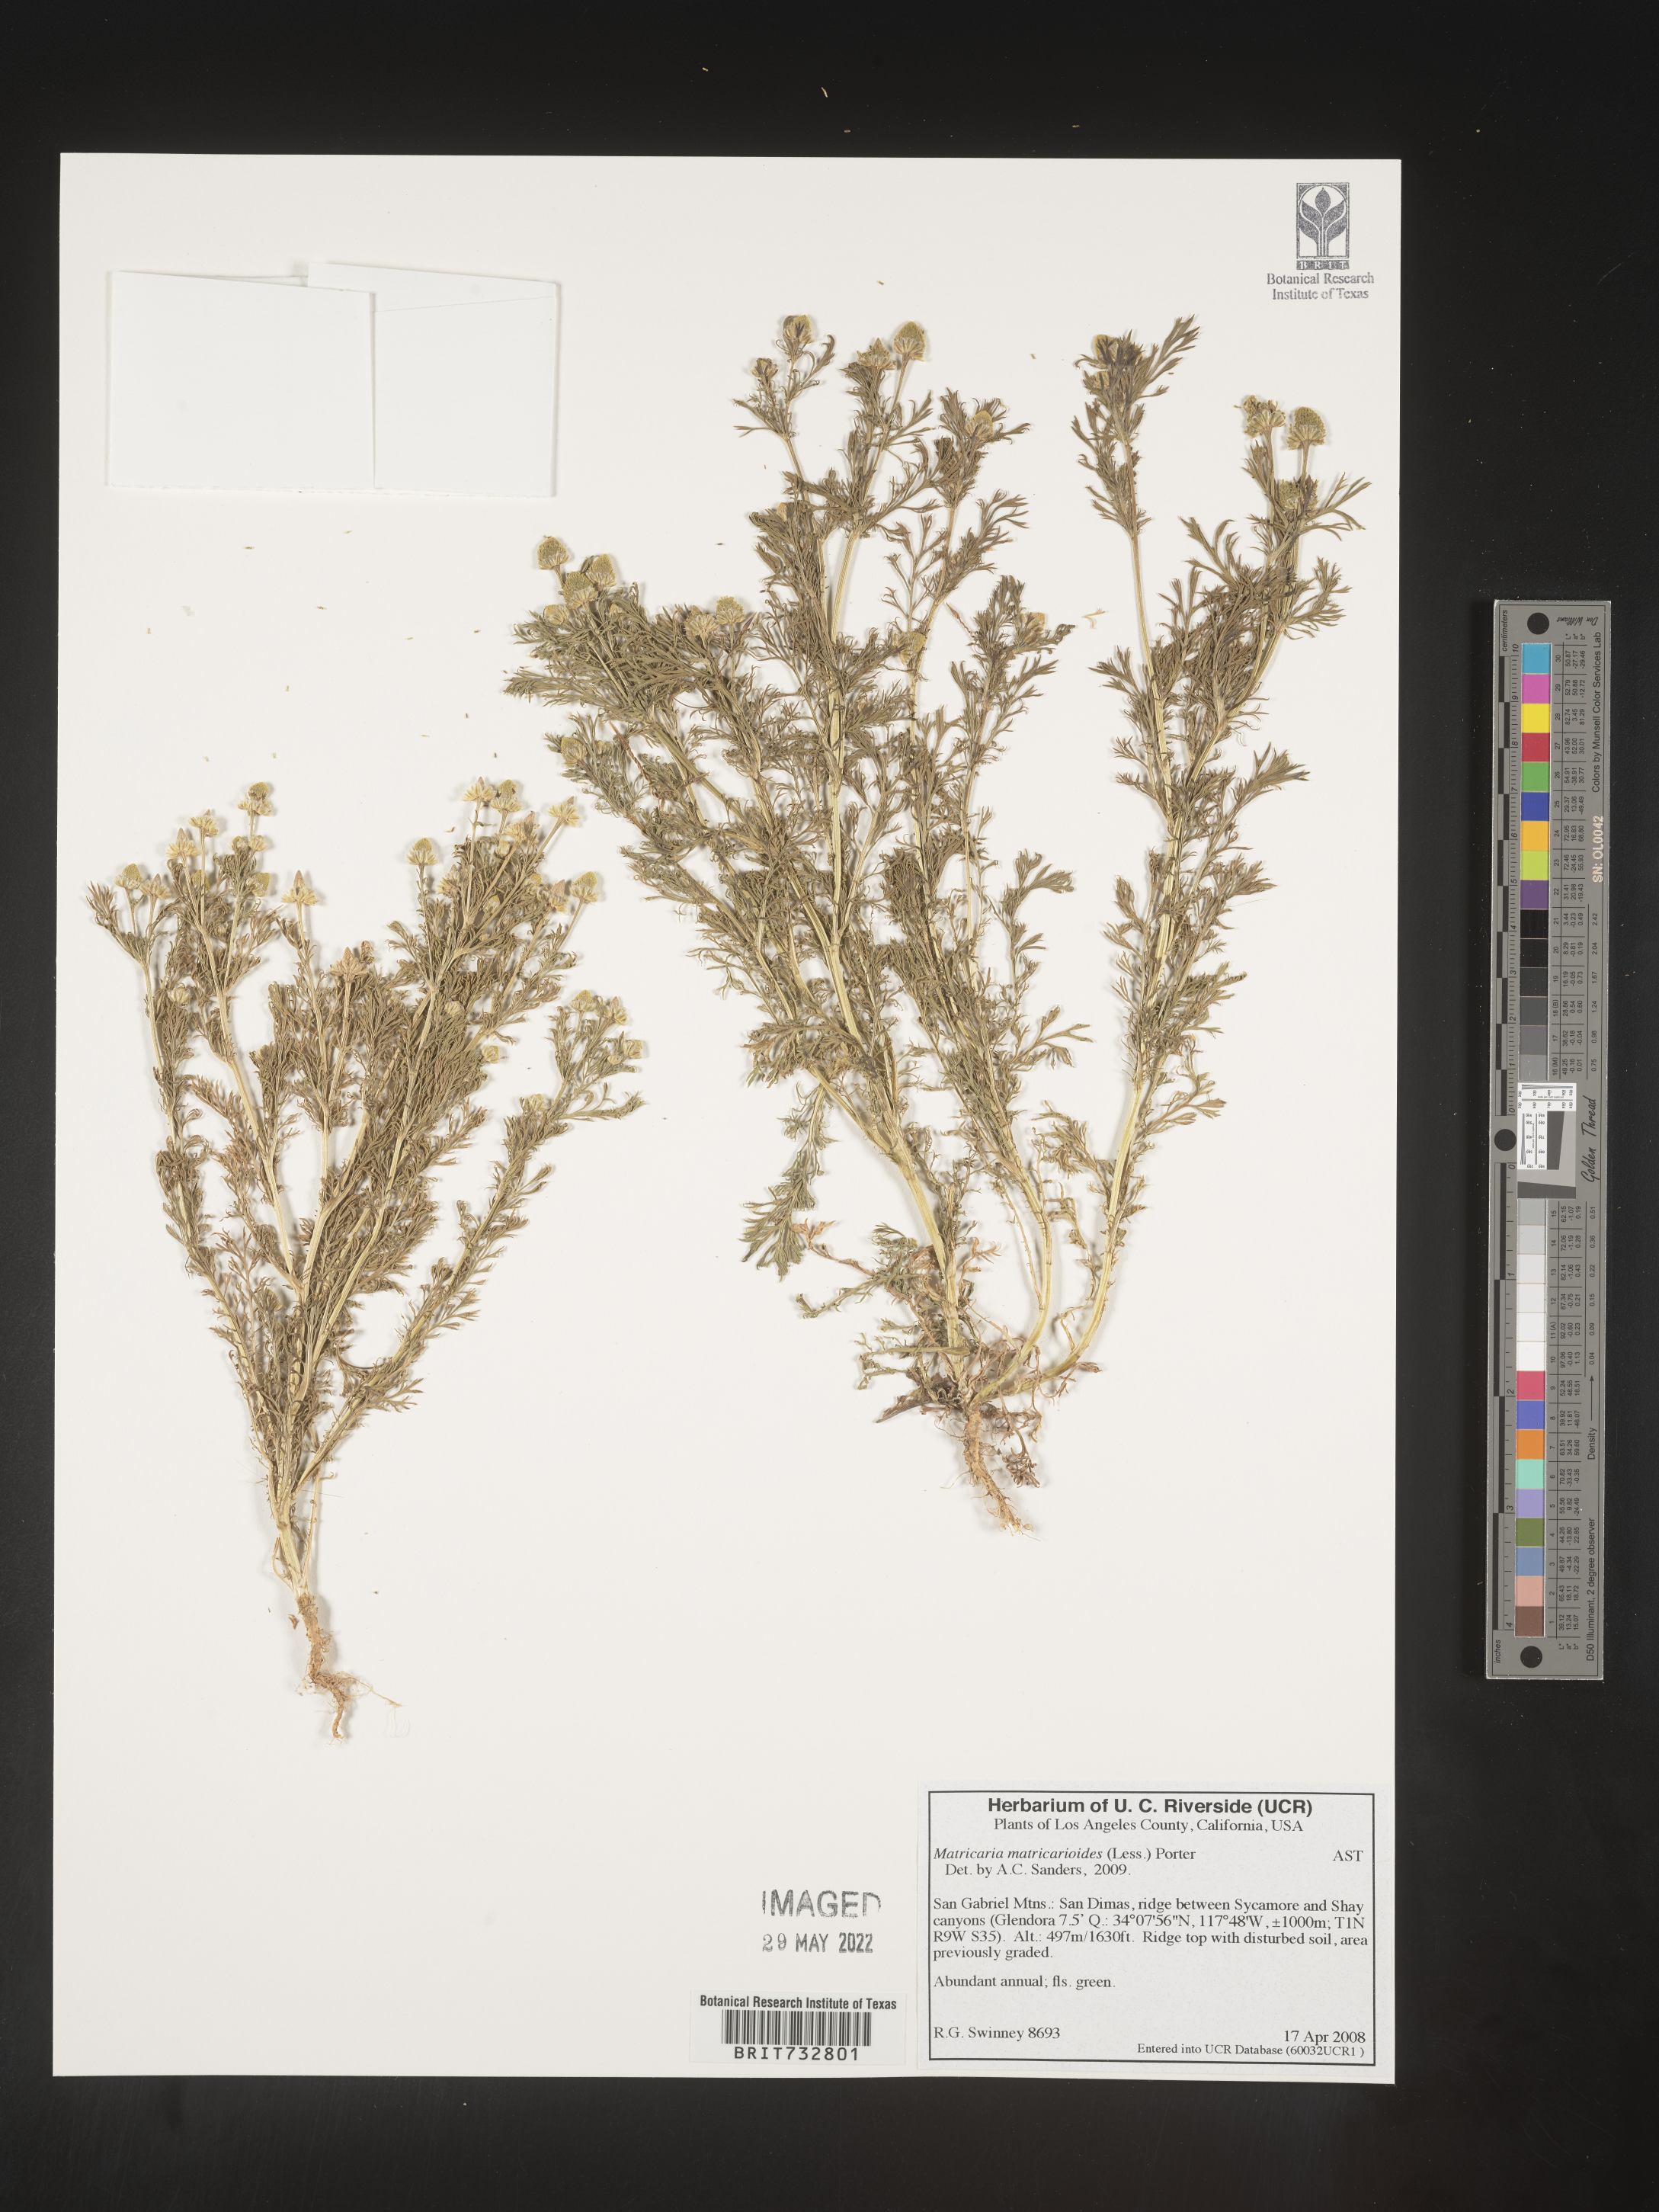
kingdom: Plantae
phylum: Tracheophyta
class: Magnoliopsida
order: Asterales
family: Asteraceae
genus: Matricaria
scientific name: Matricaria discoidea
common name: Disc mayweed
